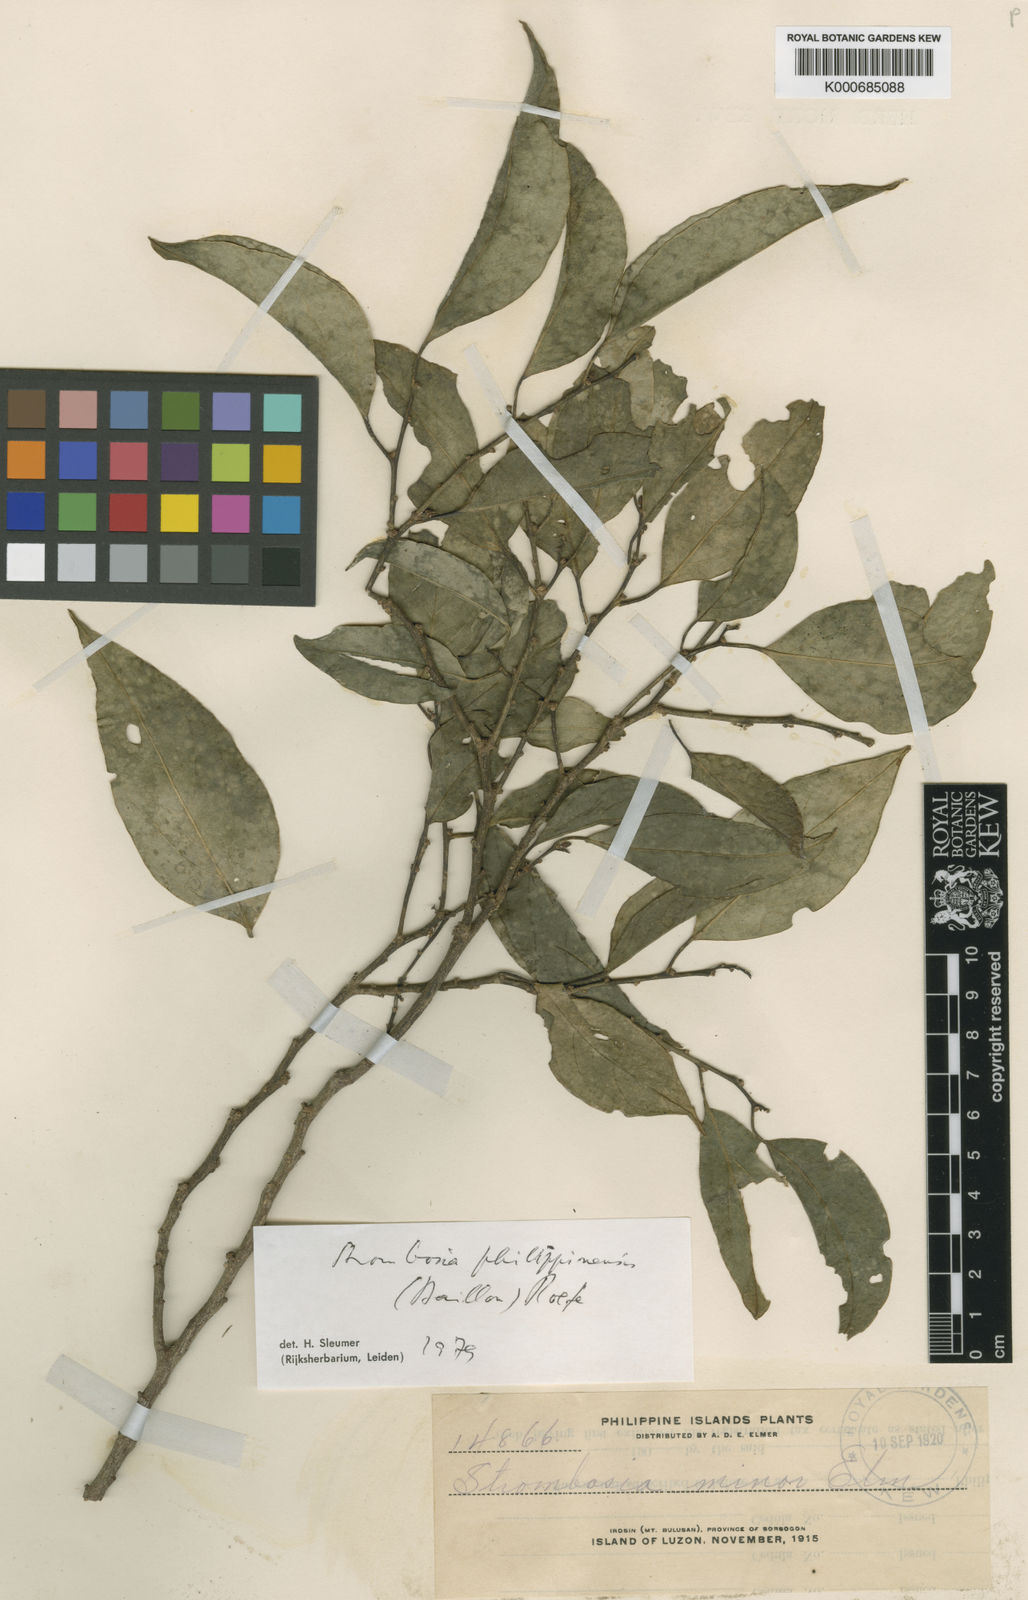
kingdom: Plantae
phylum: Tracheophyta
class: Magnoliopsida
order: Santalales
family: Strombosiaceae
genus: Strombosia
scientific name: Strombosia
